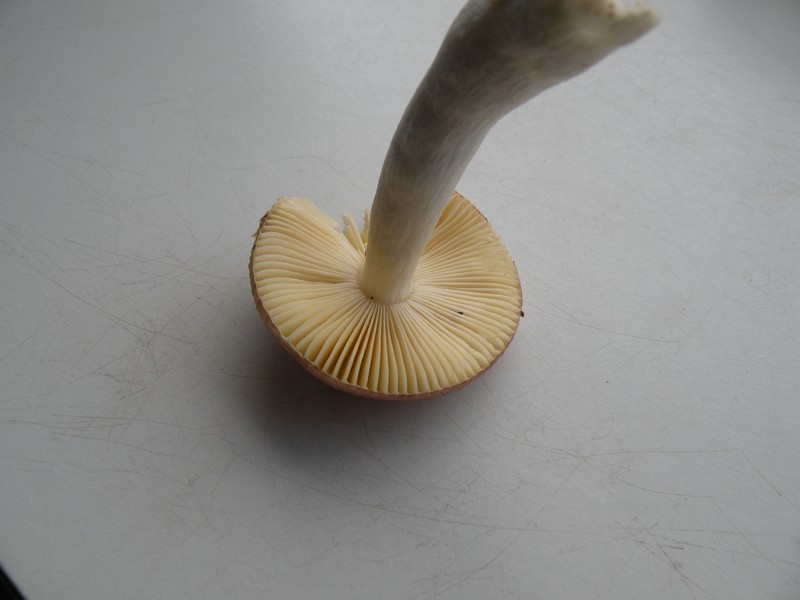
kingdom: Fungi
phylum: Basidiomycota
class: Agaricomycetes
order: Russulales
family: Russulaceae
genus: Russula
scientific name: Russula nauseosa
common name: spinkel skørhat
